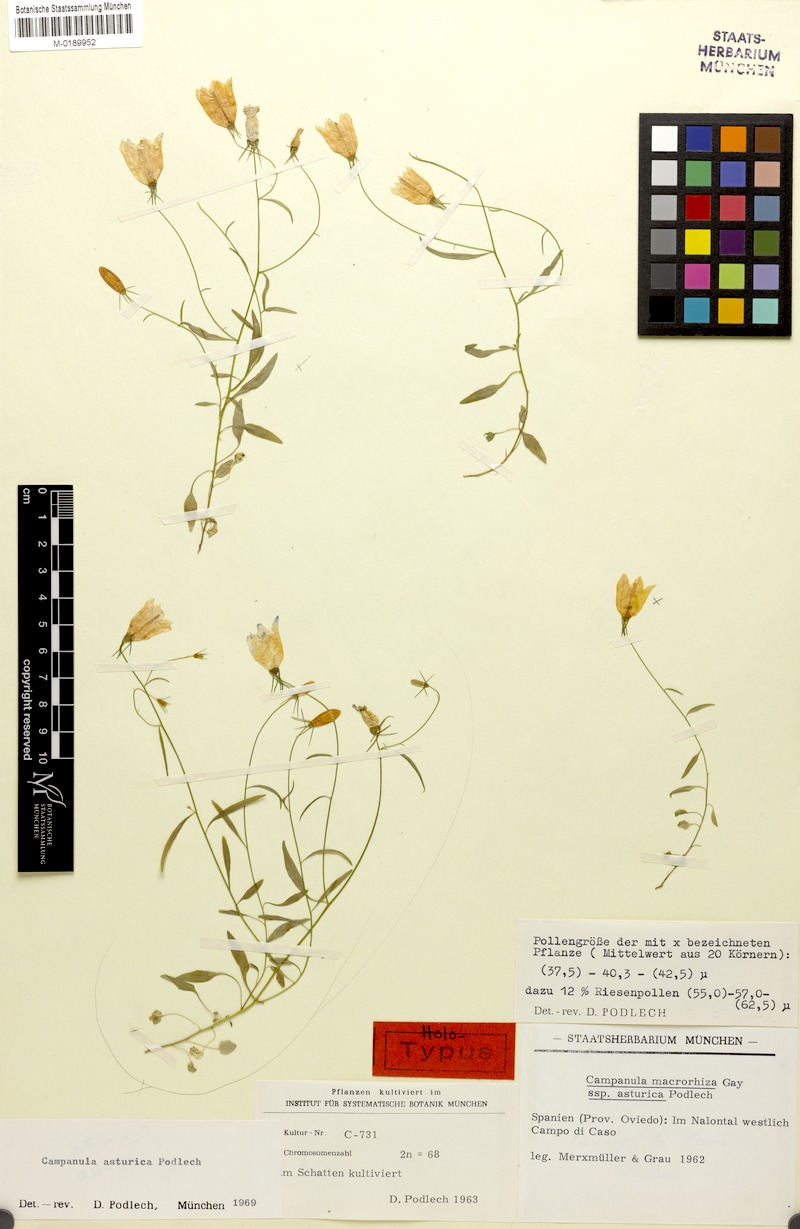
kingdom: Plantae
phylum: Tracheophyta
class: Magnoliopsida
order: Asterales
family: Campanulaceae
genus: Campanula
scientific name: Campanula rotundifolia
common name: Harebell
